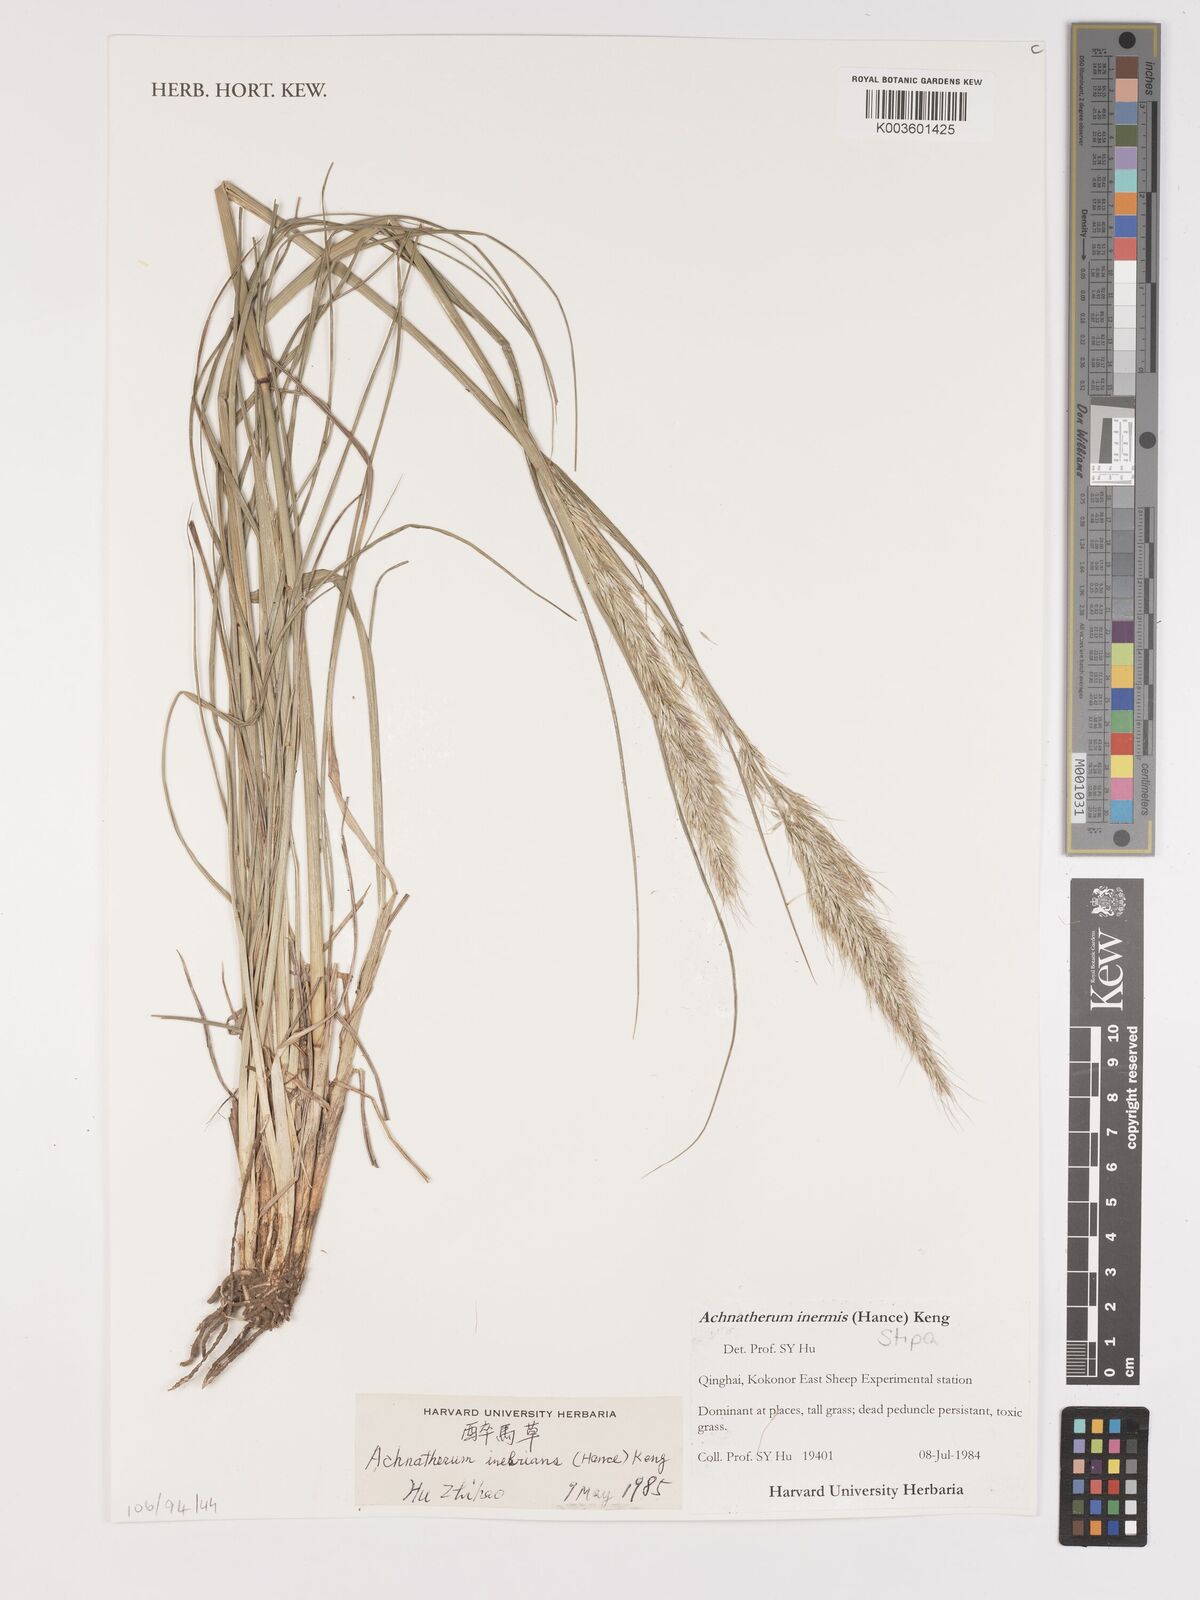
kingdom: Plantae
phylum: Tracheophyta
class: Liliopsida
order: Poales
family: Poaceae
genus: Achnatherum
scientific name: Achnatherum inebrians
